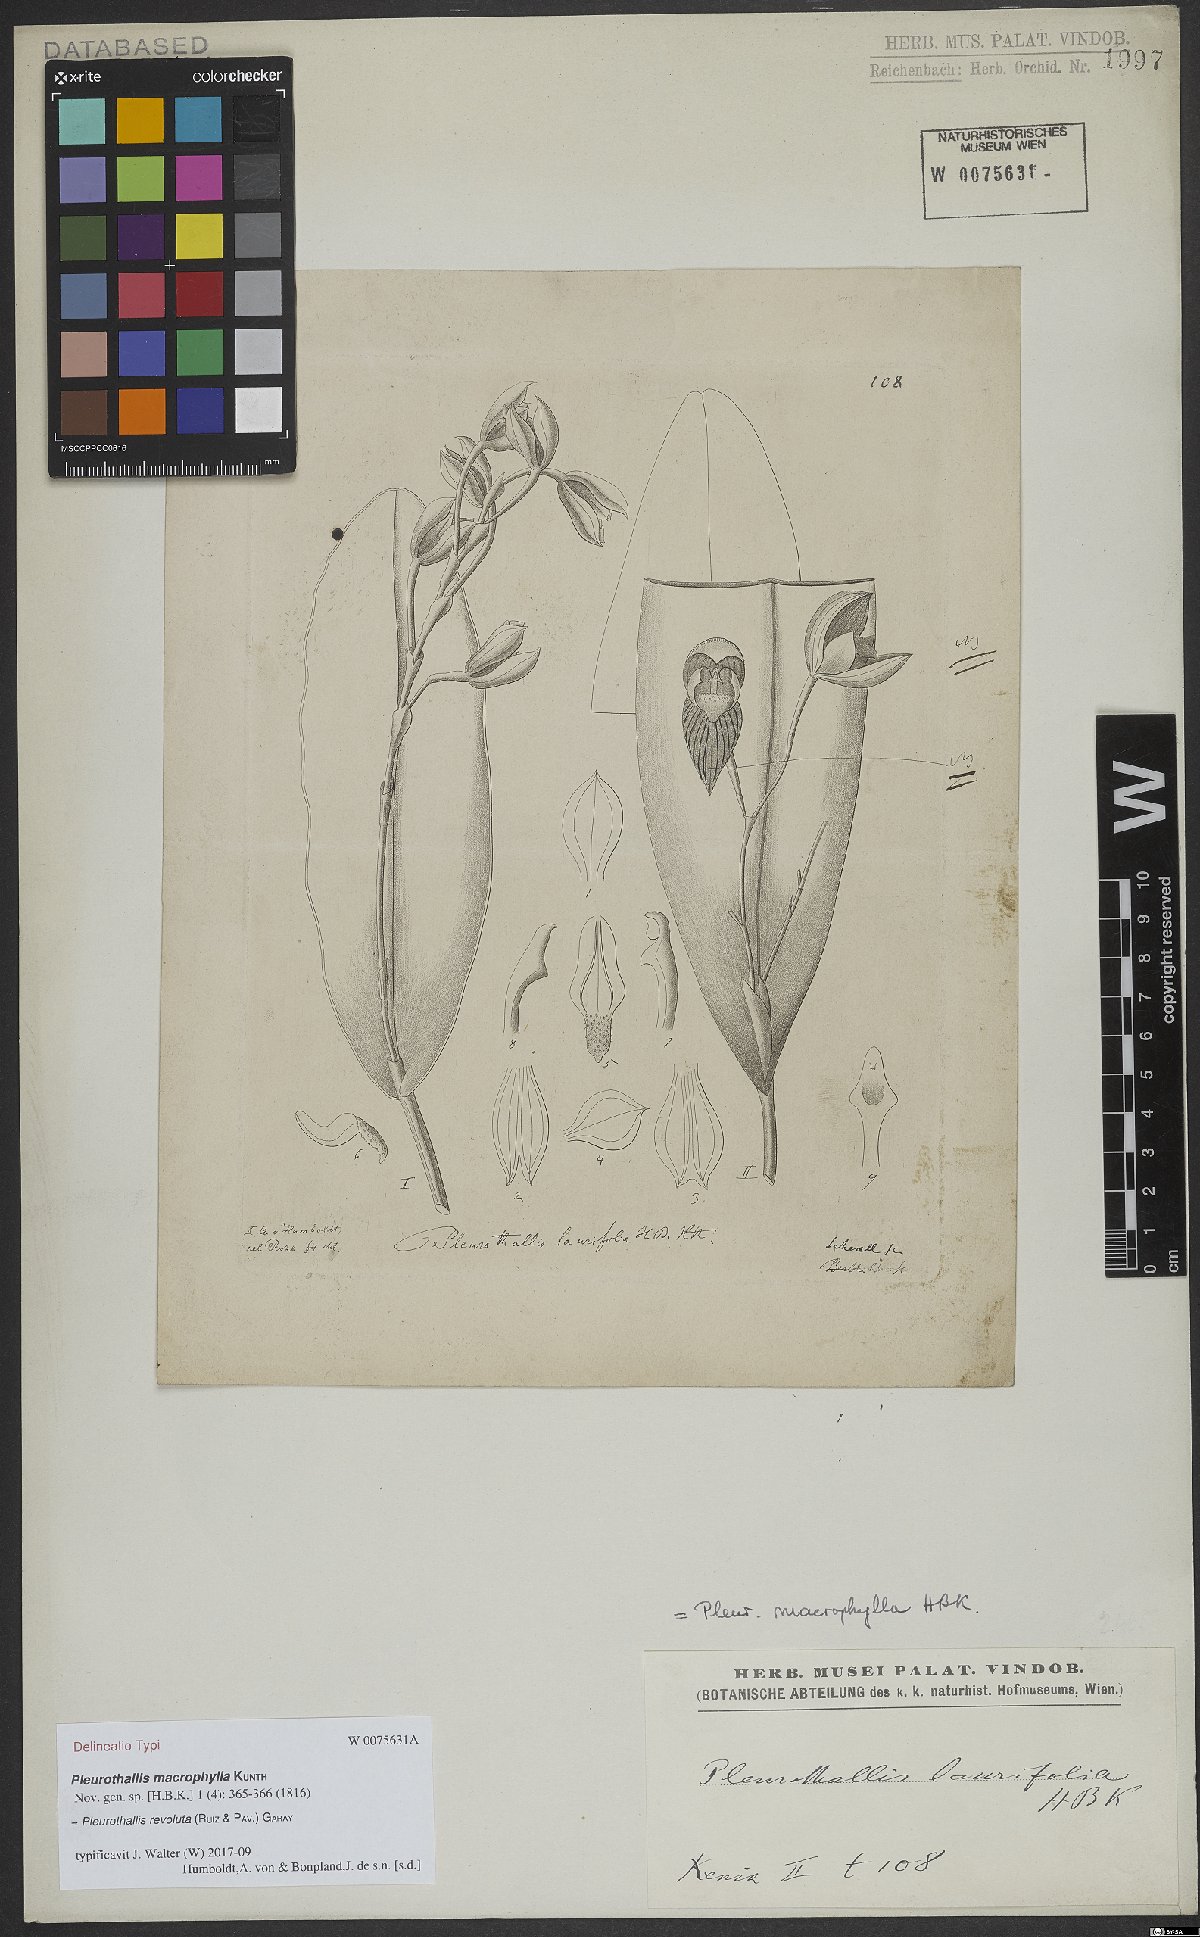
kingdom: Plantae
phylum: Tracheophyta
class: Liliopsida
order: Asparagales
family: Orchidaceae
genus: Pleurothallis
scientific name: Pleurothallis revoluta
